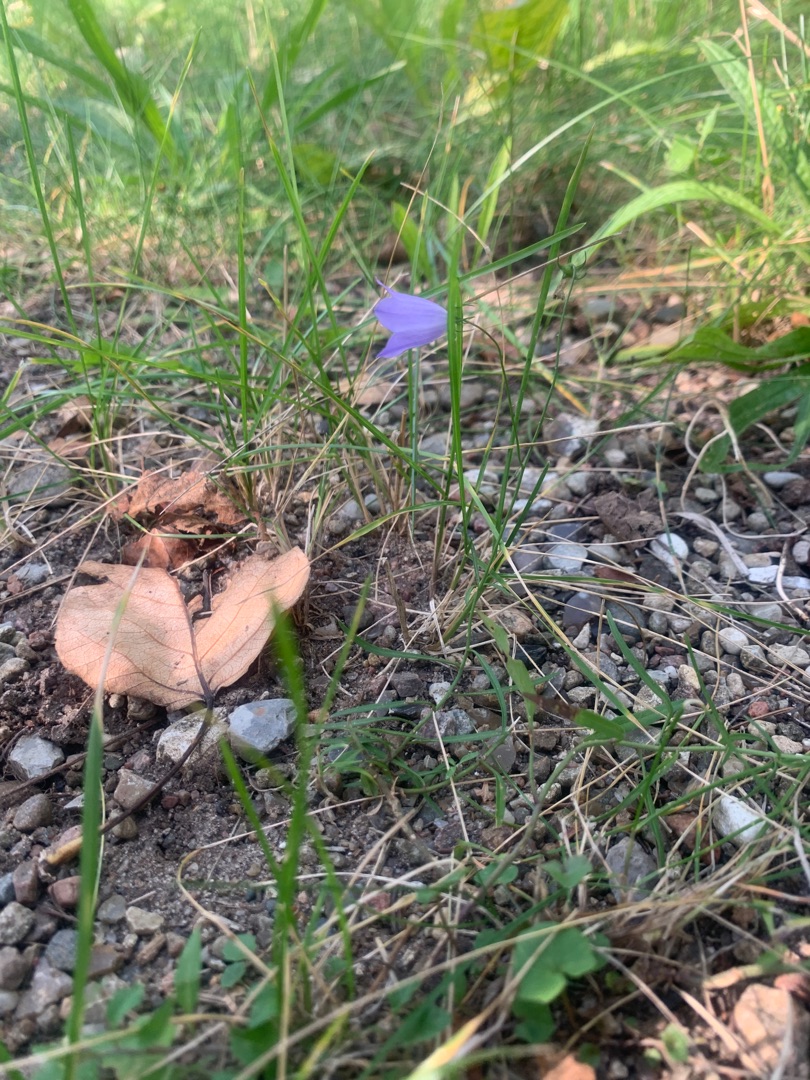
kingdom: Plantae
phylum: Tracheophyta
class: Magnoliopsida
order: Asterales
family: Campanulaceae
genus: Campanula
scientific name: Campanula rotundifolia
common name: Liden klokke
